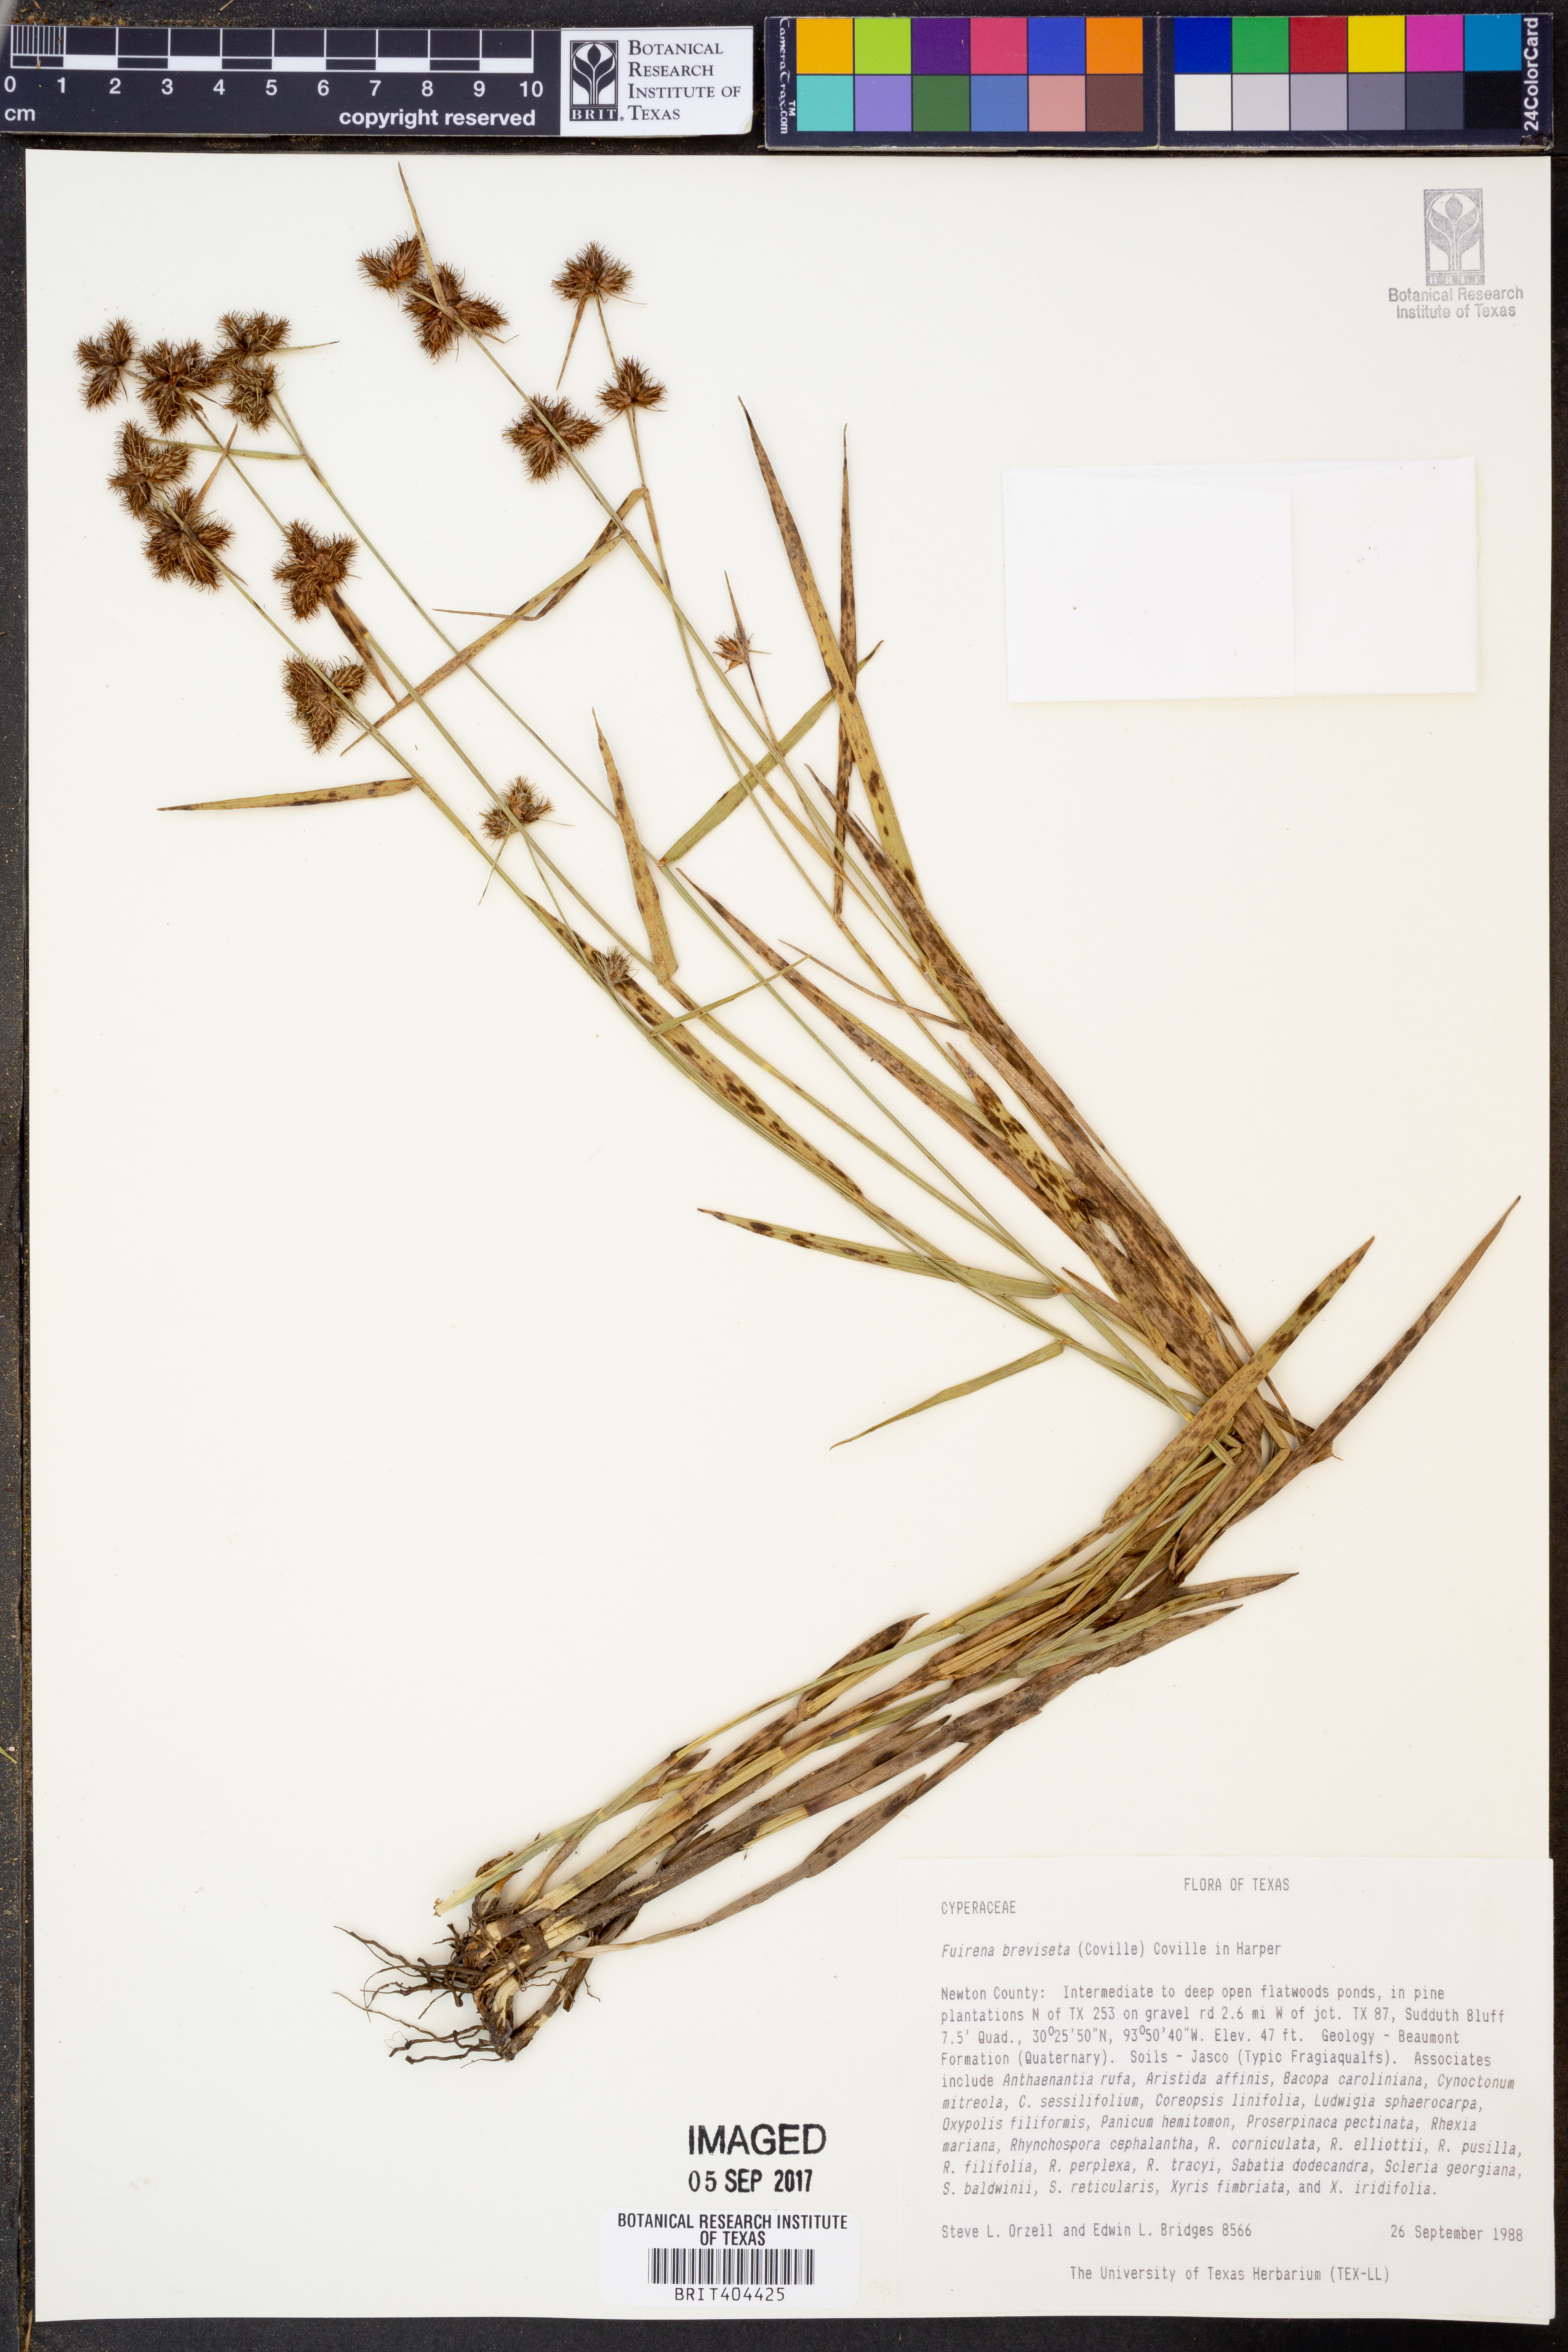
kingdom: Plantae
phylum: Tracheophyta
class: Liliopsida
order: Poales
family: Cyperaceae
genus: Fuirena
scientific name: Fuirena breviseta
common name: Saltmarsh umbrella sedge
